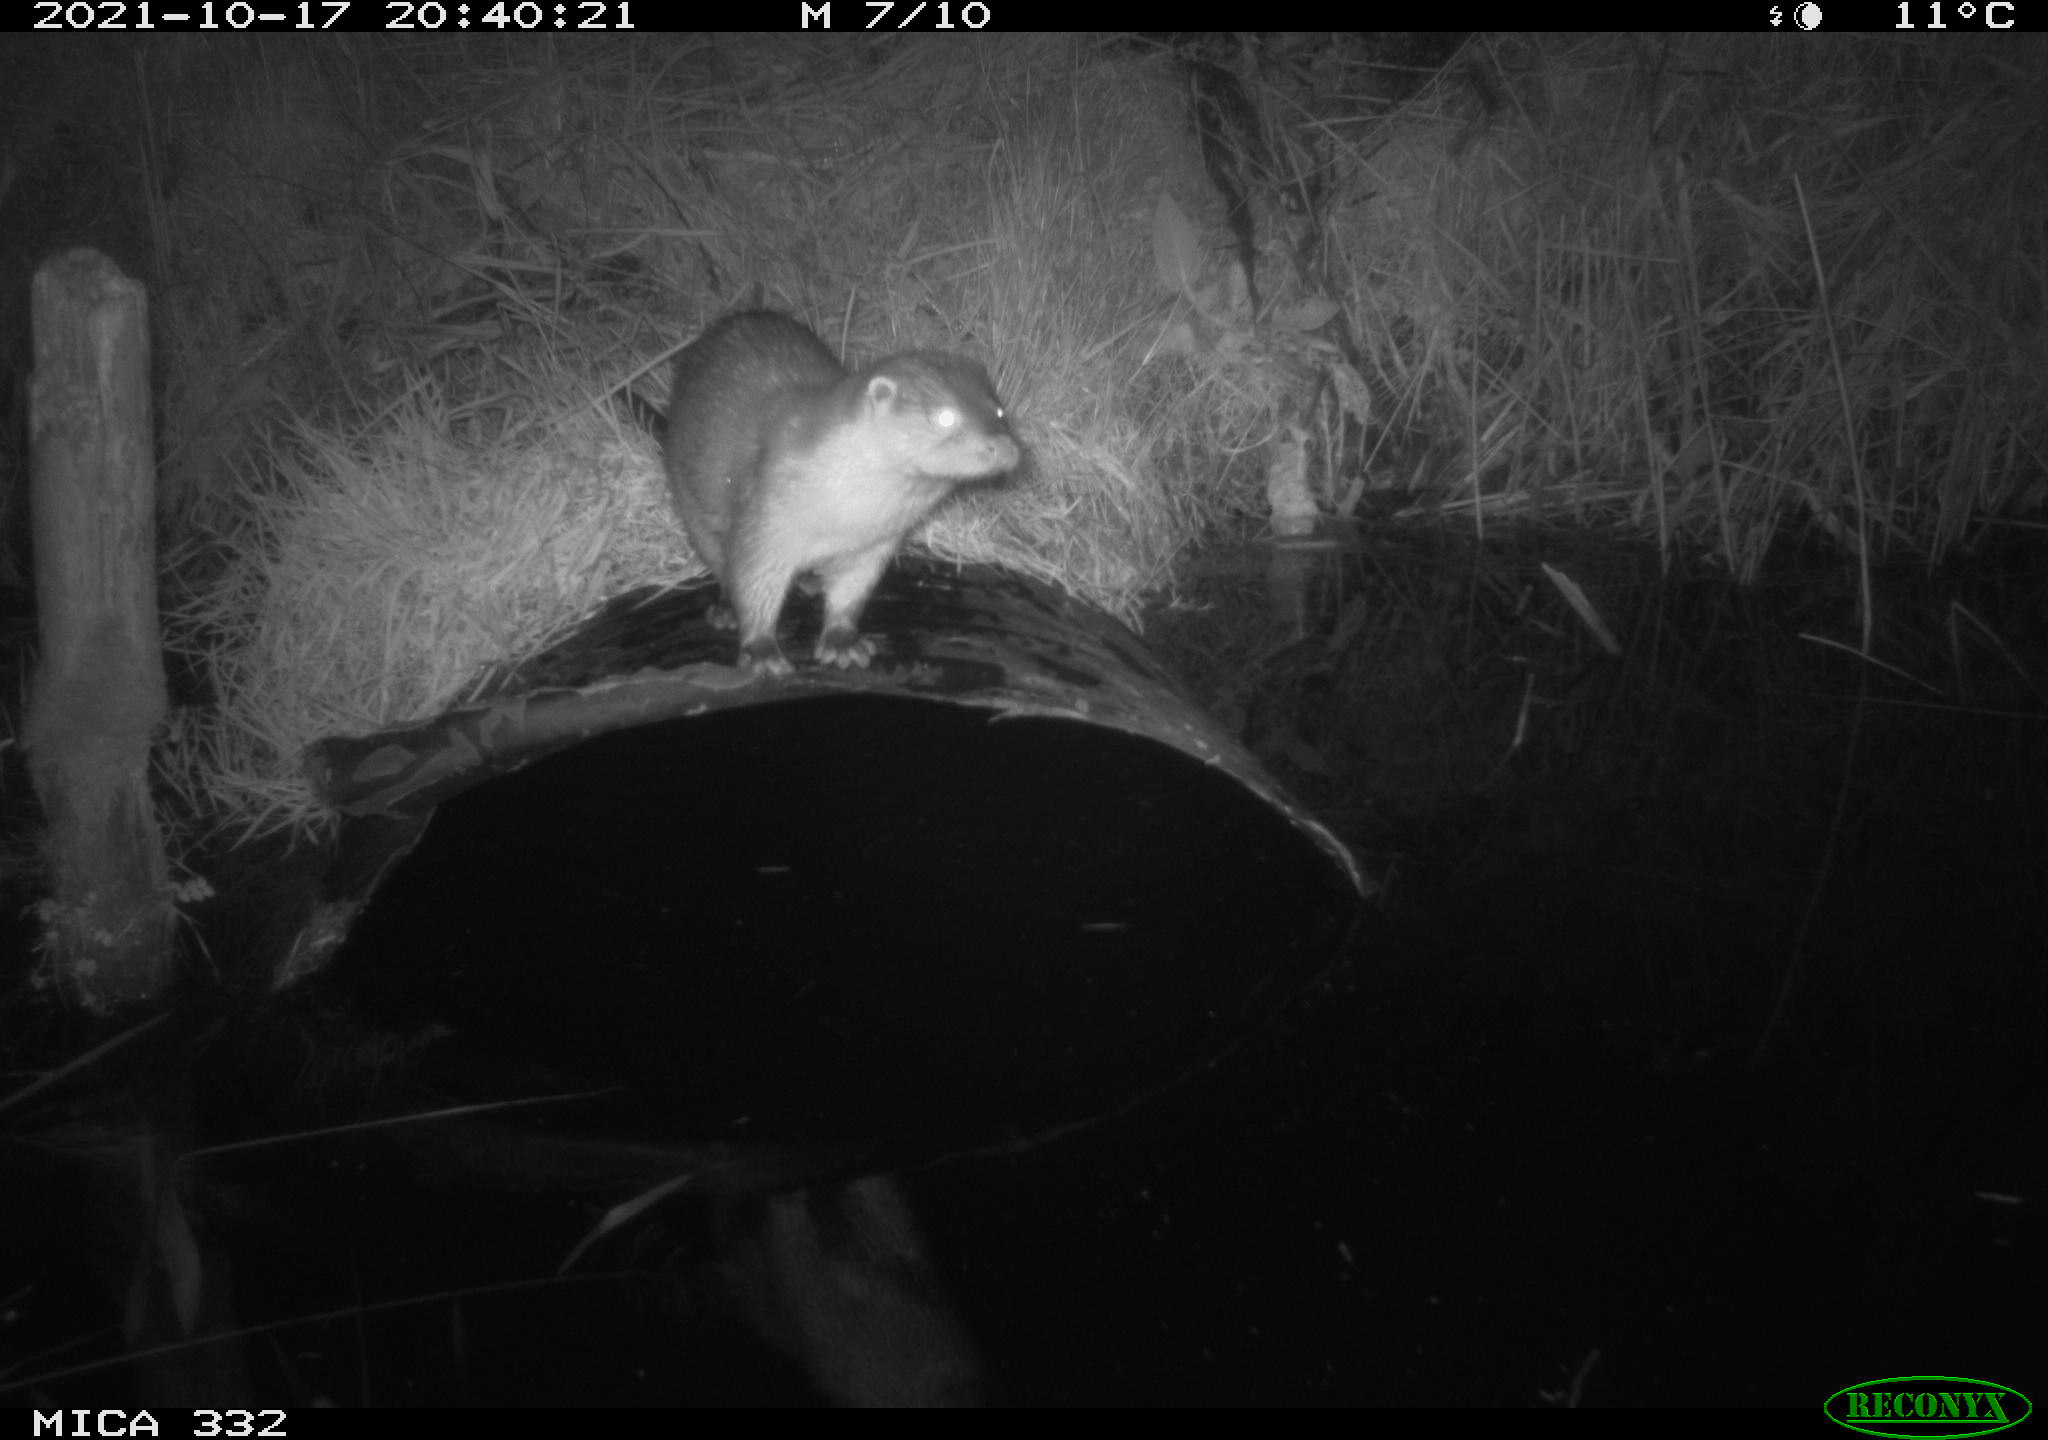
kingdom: Animalia
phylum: Chordata
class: Mammalia
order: Carnivora
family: Mustelidae
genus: Lutra
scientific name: Lutra lutra
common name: European otter
